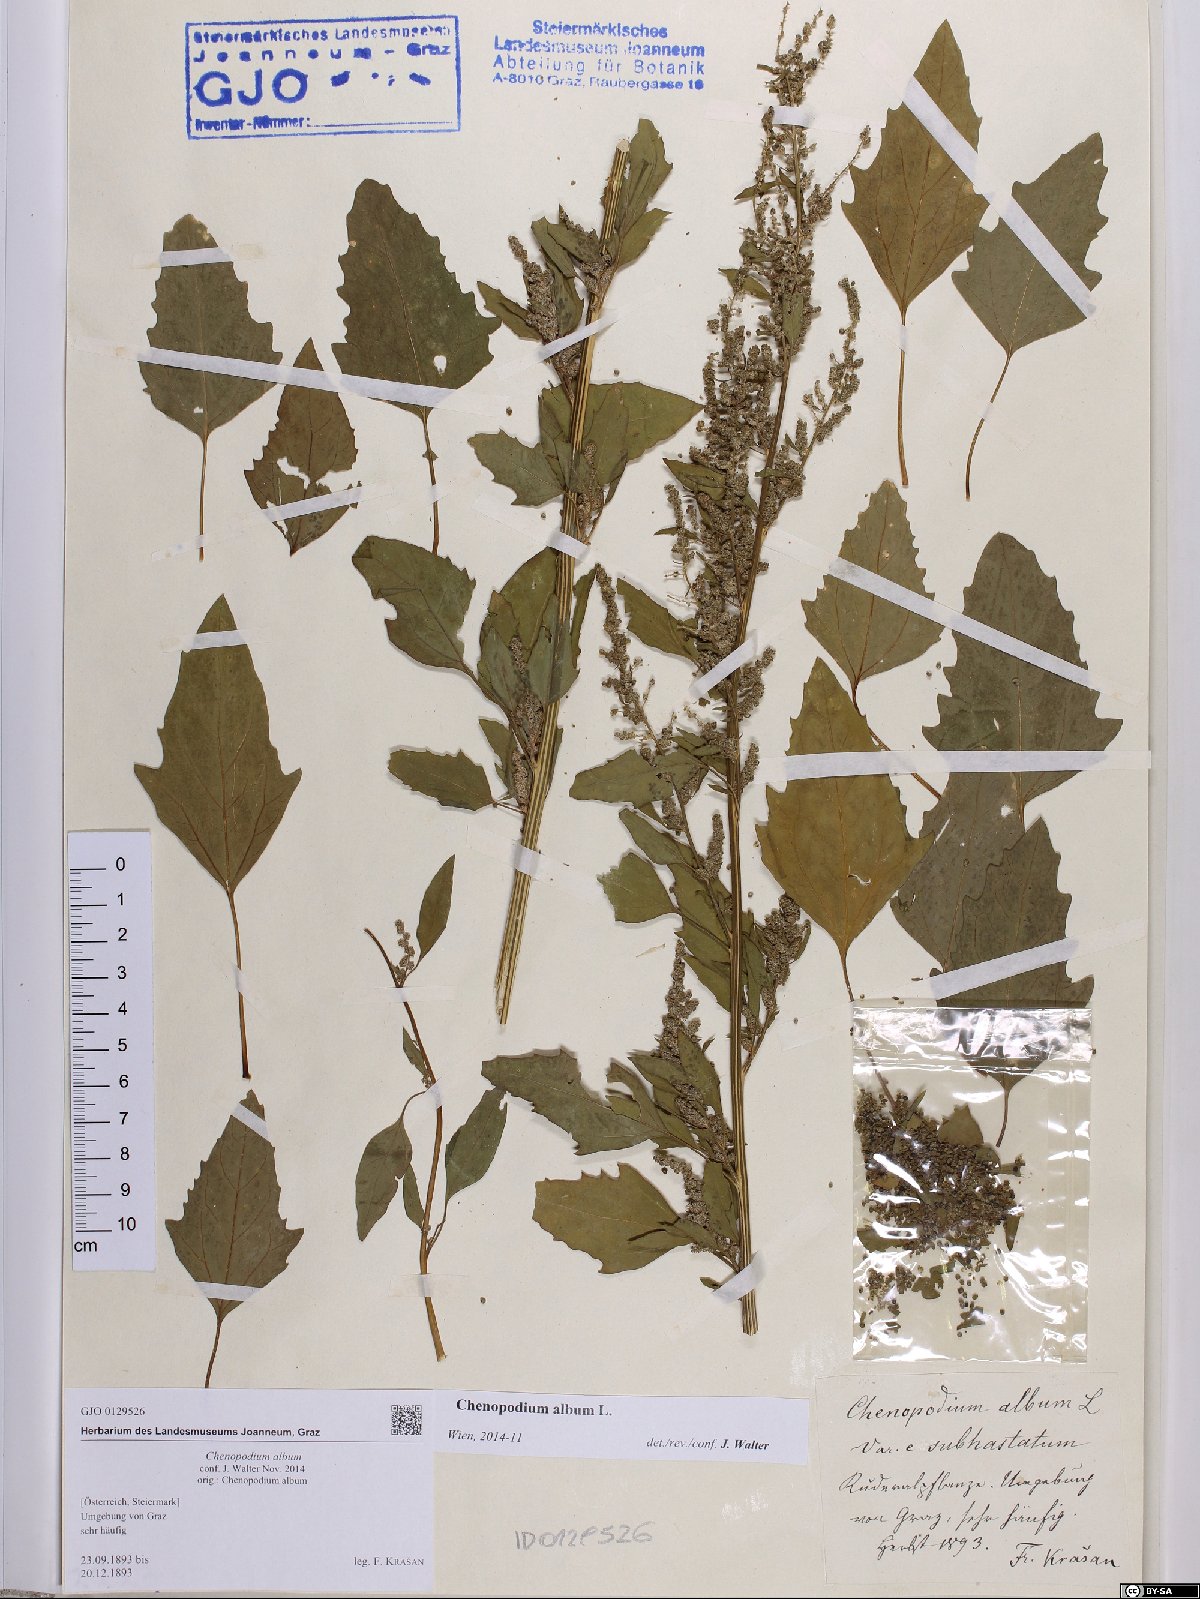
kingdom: Plantae
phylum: Tracheophyta
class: Magnoliopsida
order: Caryophyllales
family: Amaranthaceae
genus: Chenopodium
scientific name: Chenopodium album
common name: Fat-hen
